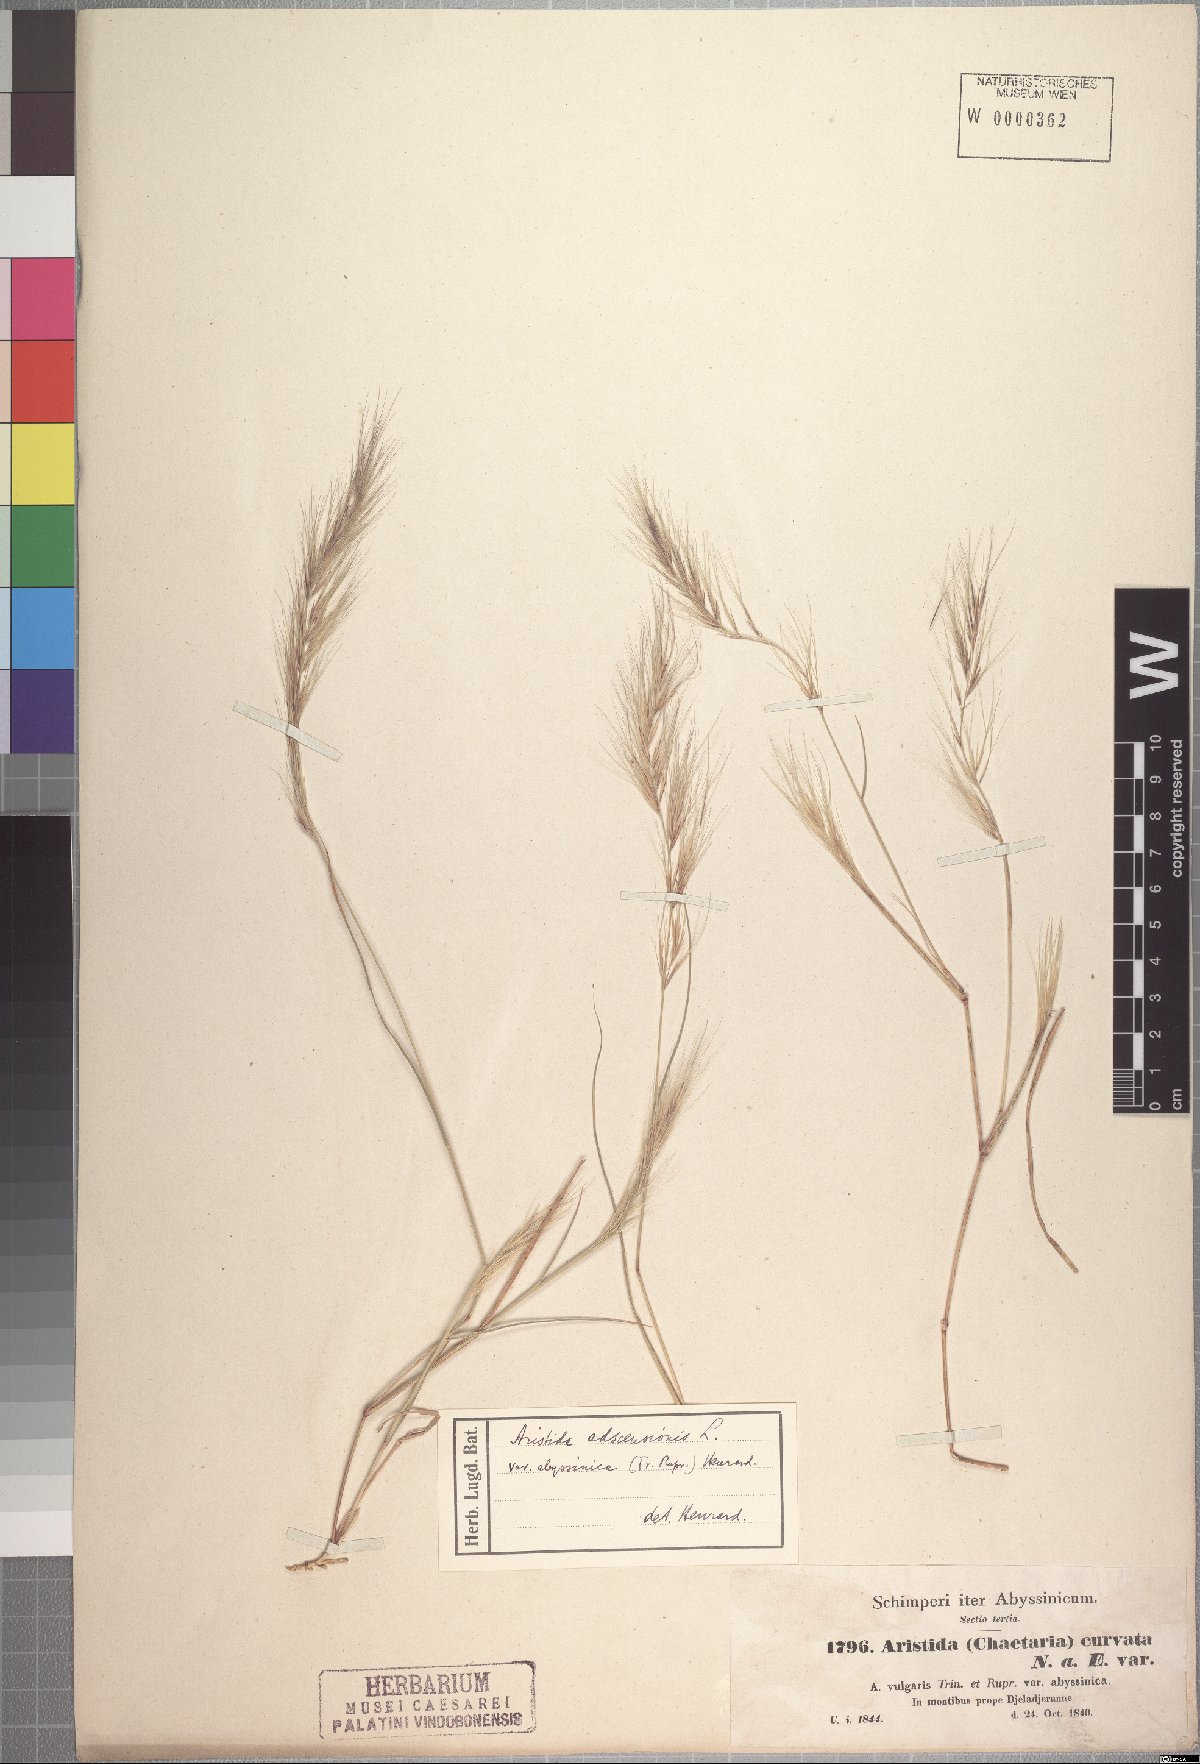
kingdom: Plantae
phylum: Tracheophyta
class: Liliopsida
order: Poales
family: Poaceae
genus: Aristida
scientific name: Aristida adscensionis
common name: Sixweeks threeawn
